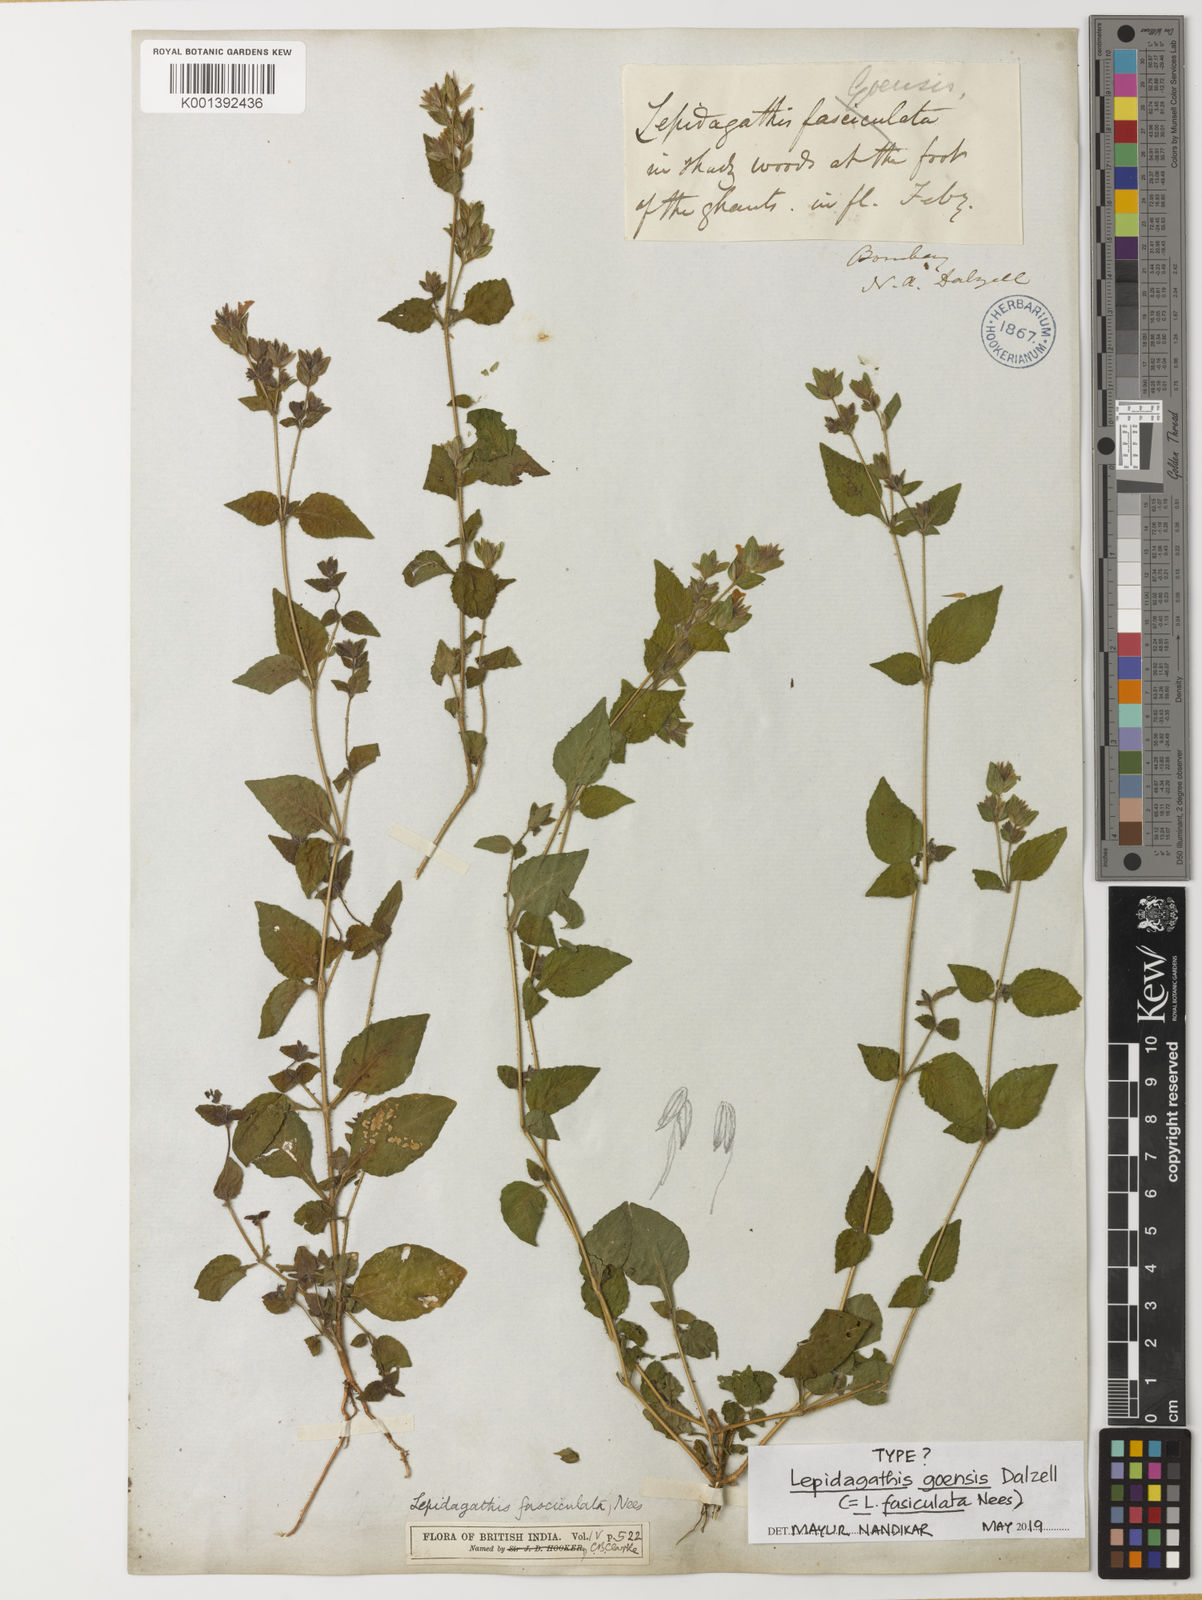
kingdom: Plantae
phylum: Tracheophyta
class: Magnoliopsida
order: Lamiales
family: Acanthaceae
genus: Lepidagathis
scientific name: Lepidagathis fasciculata
